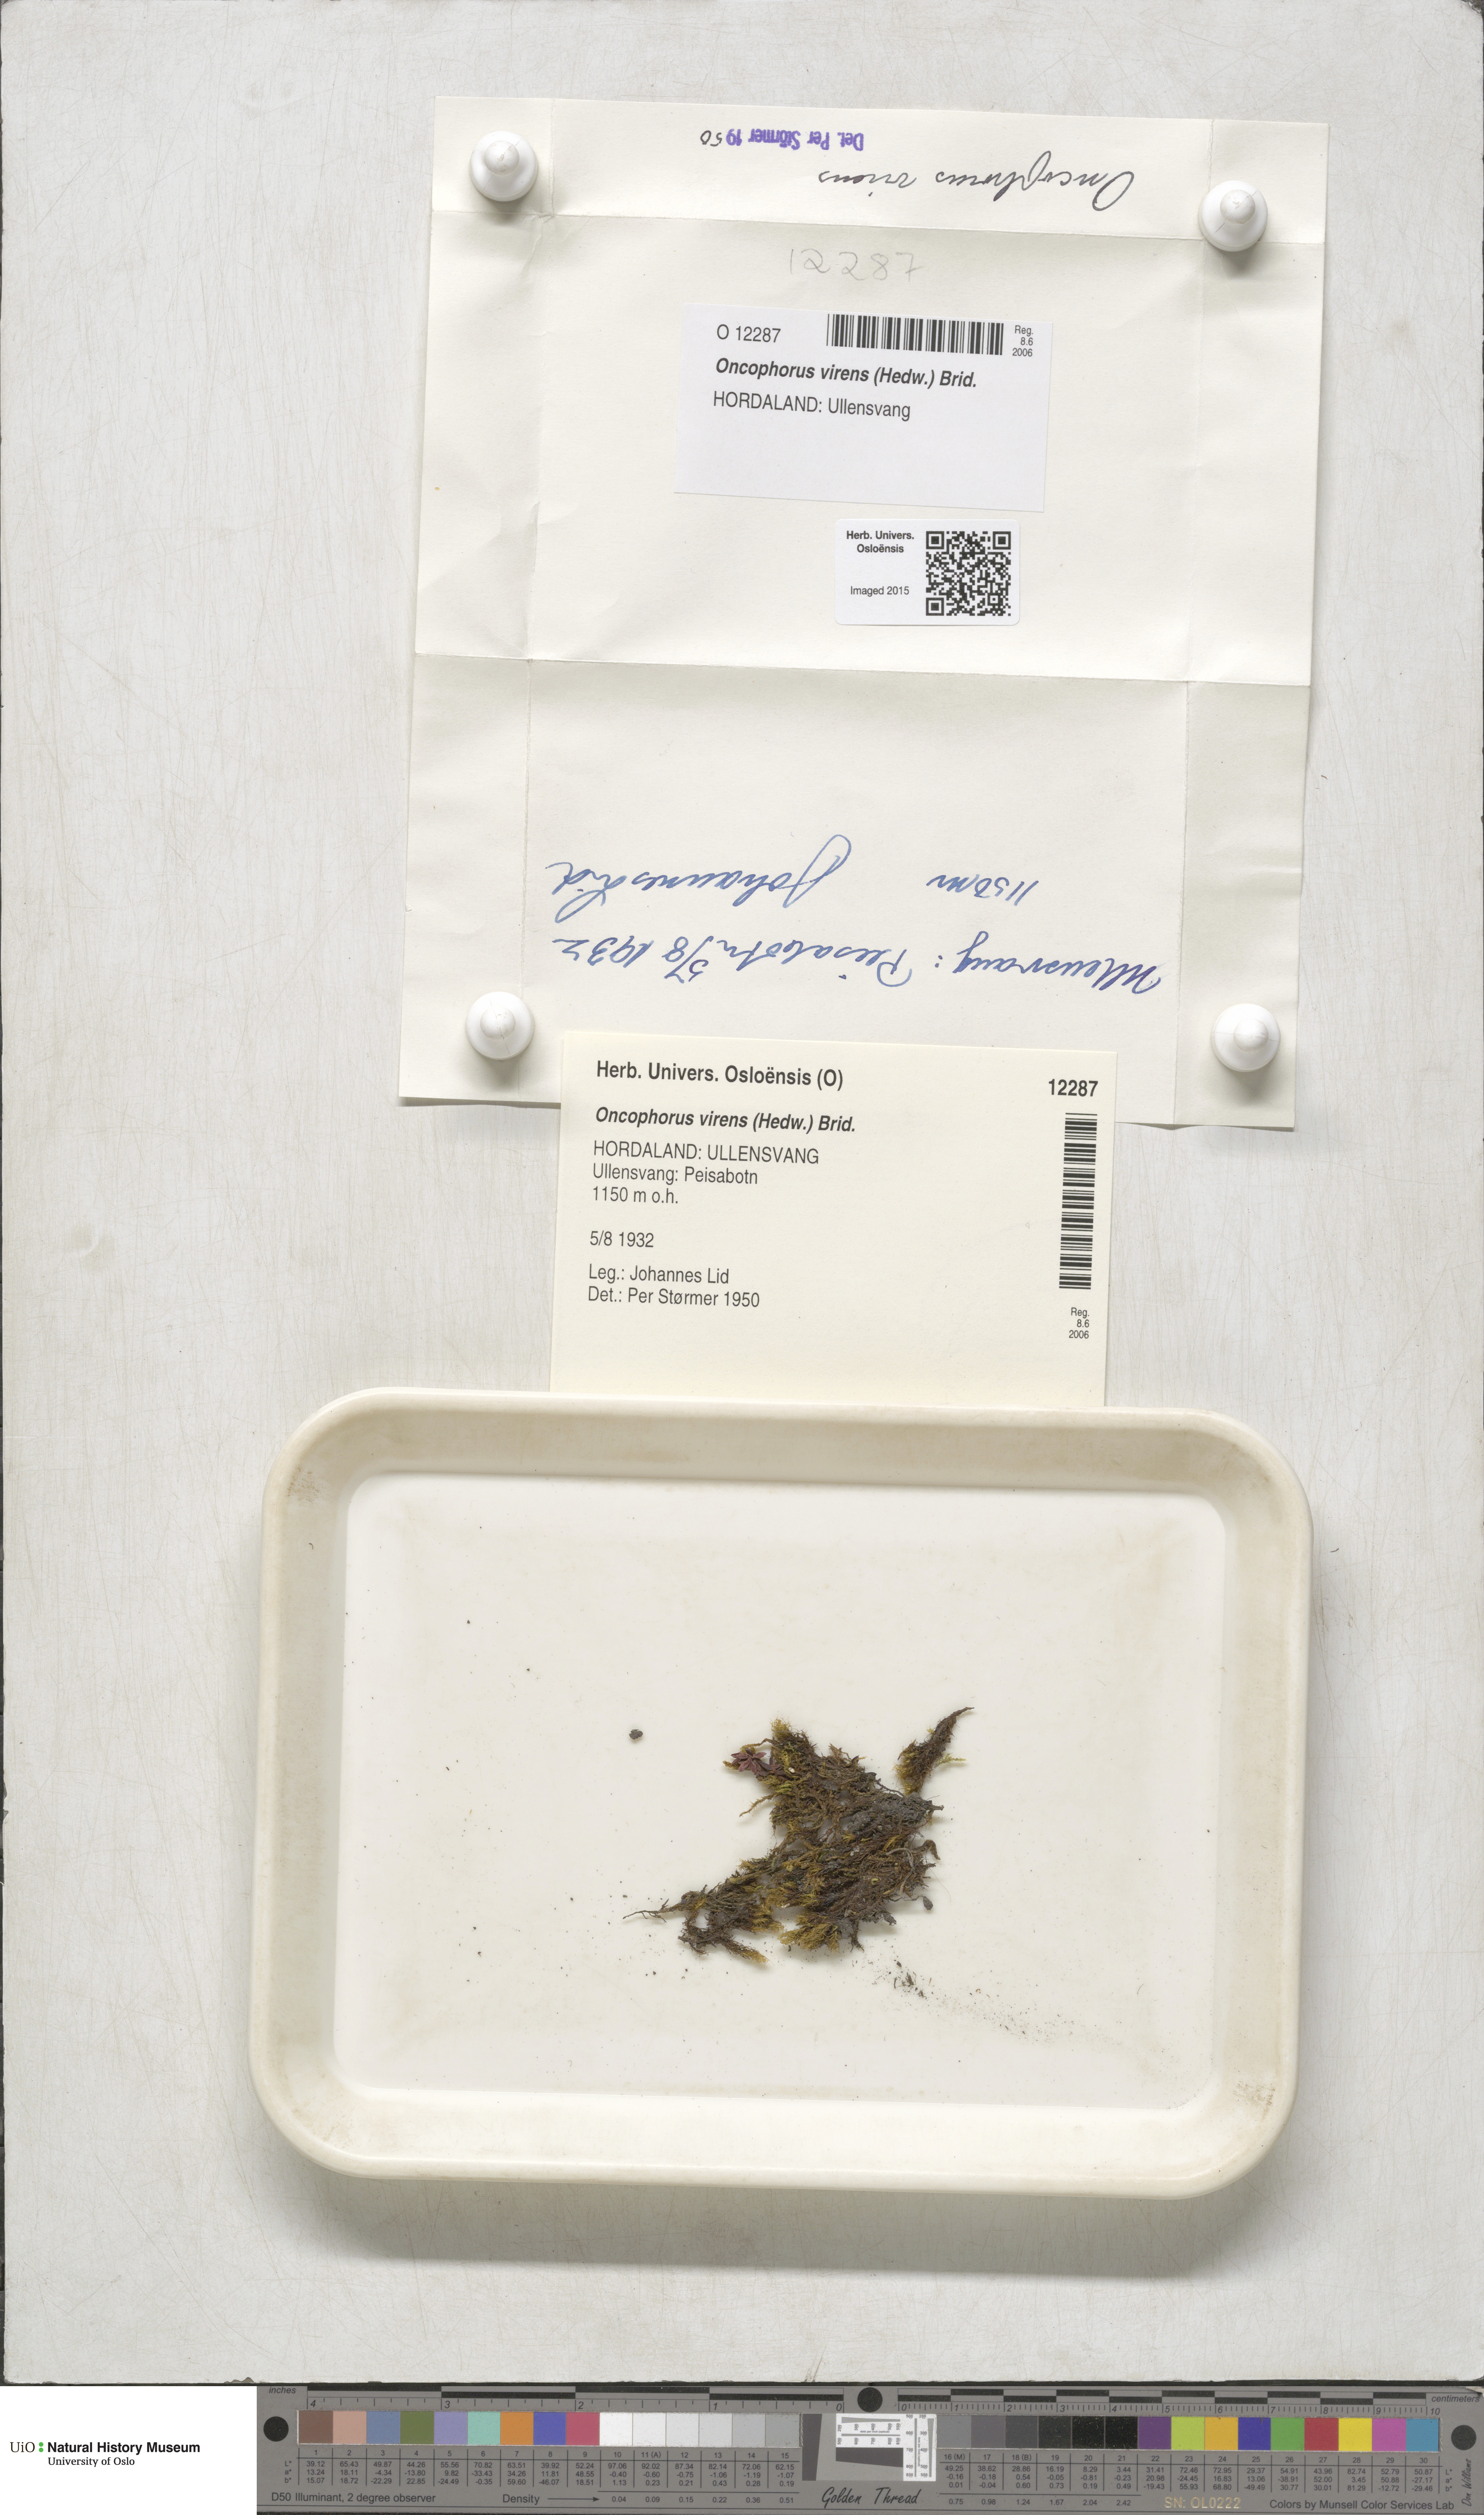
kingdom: Plantae
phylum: Bryophyta
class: Bryopsida
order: Dicranales
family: Rhabdoweisiaceae
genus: Oncophorus
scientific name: Oncophorus virens
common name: Green spur moss
